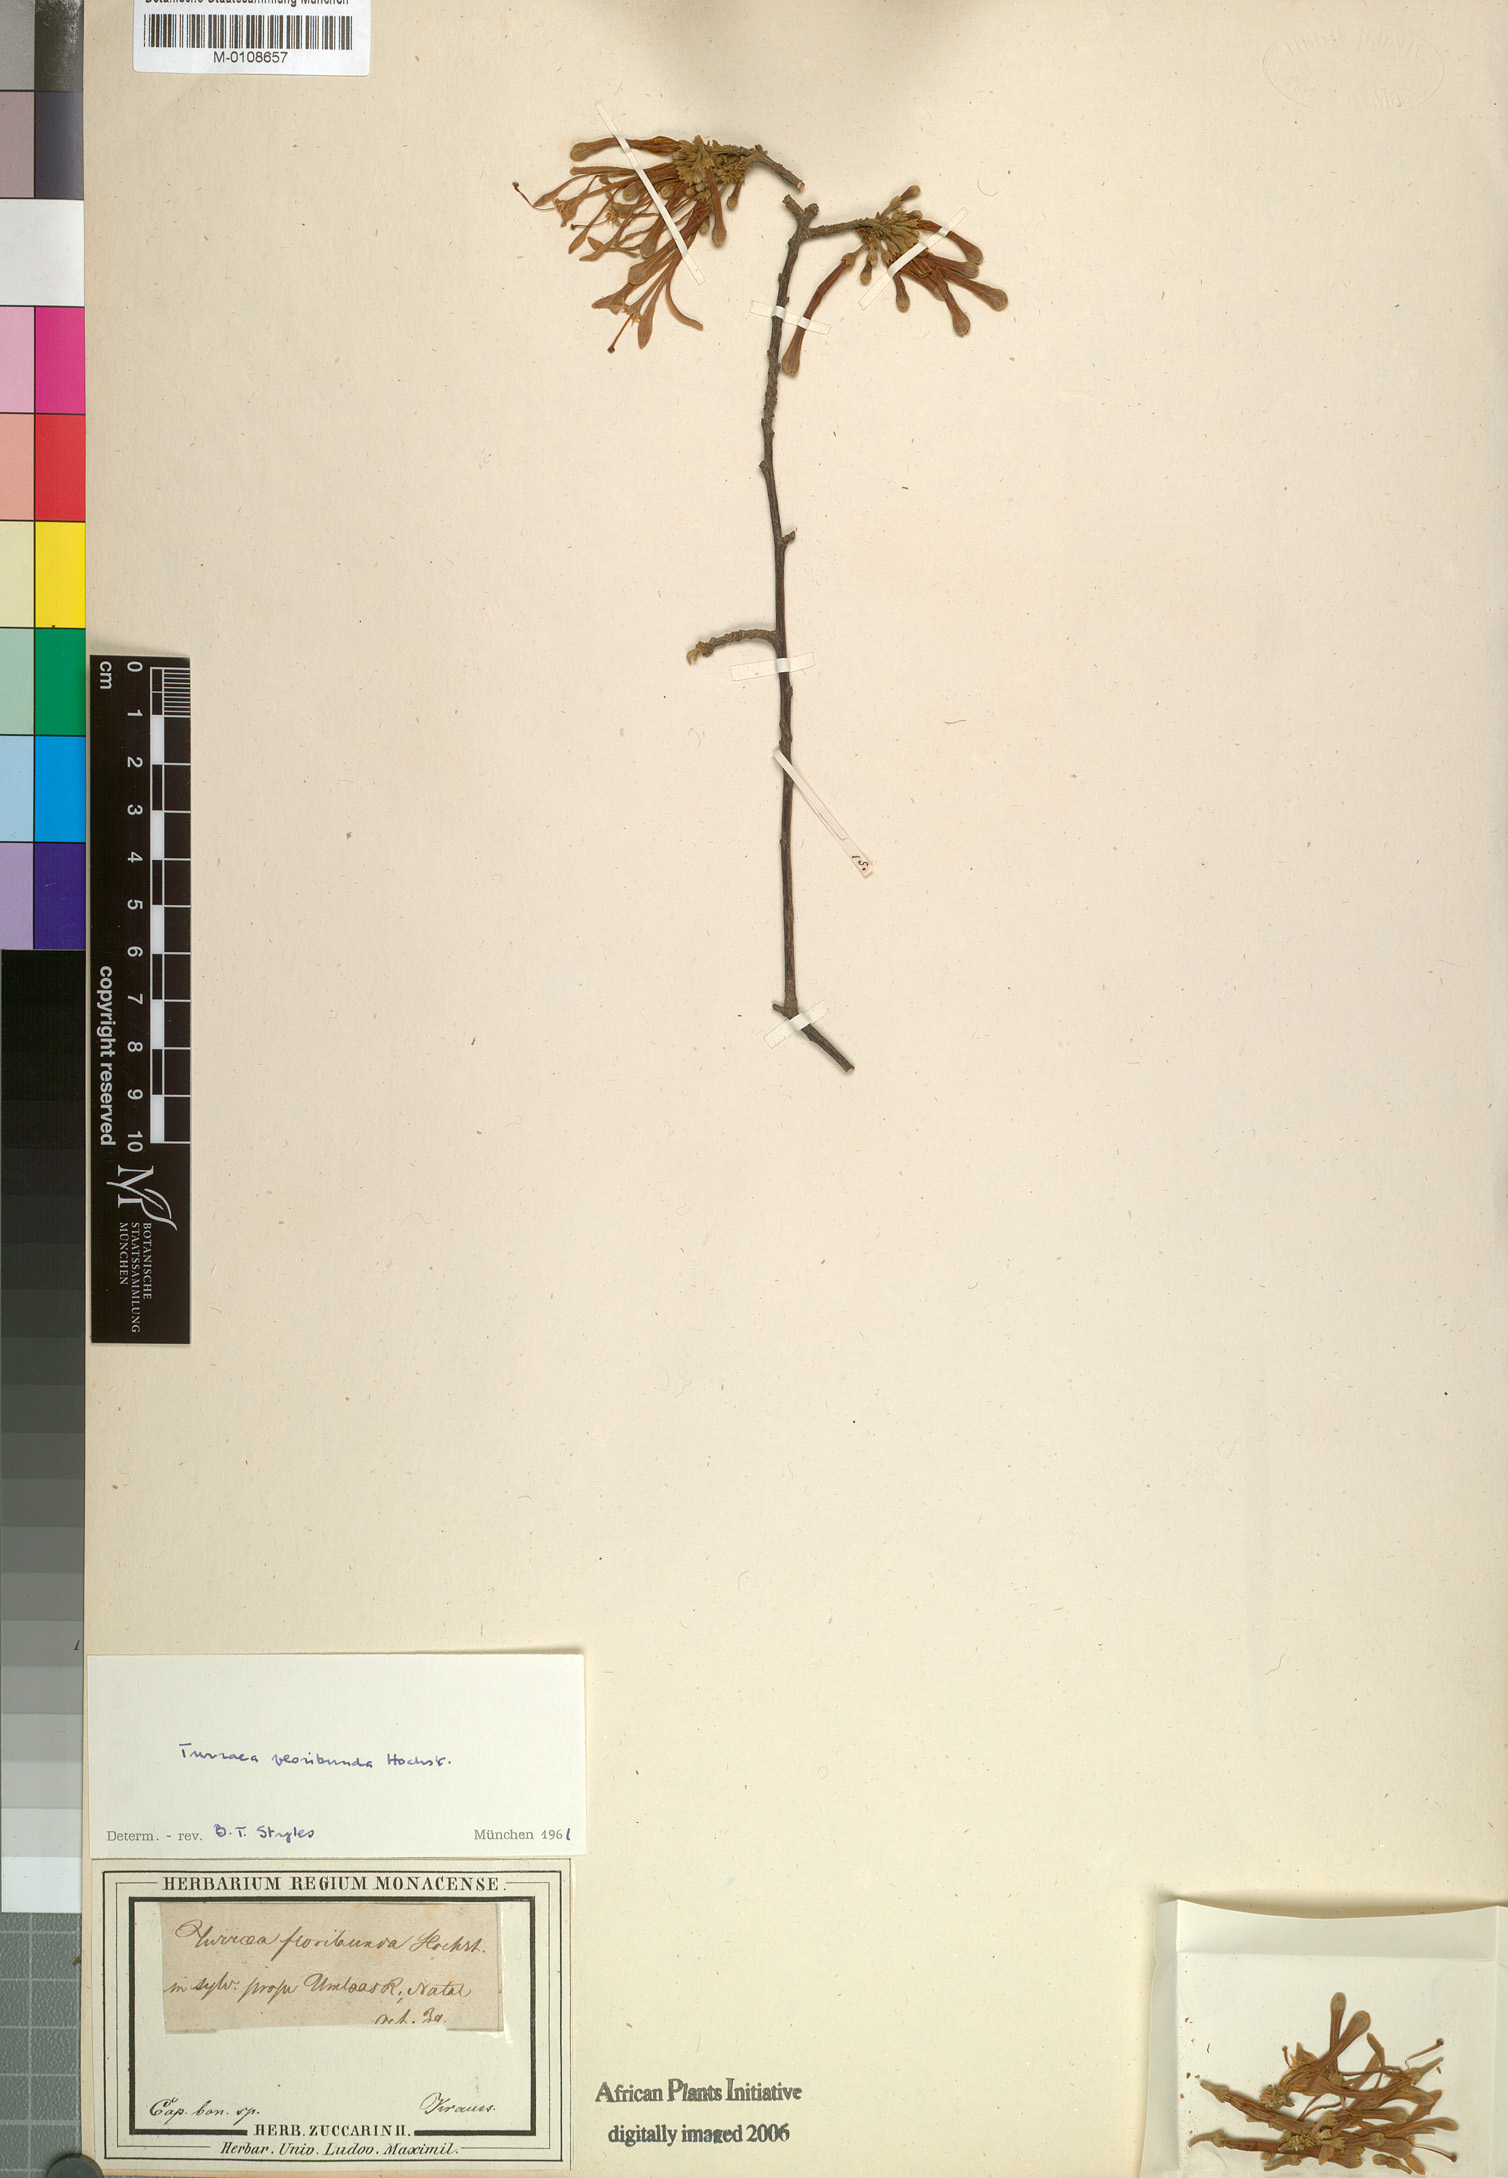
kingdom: Plantae
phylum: Tracheophyta
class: Magnoliopsida
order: Sapindales
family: Meliaceae
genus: Turraea
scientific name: Turraea floribunda
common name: Honeysuckle tree
